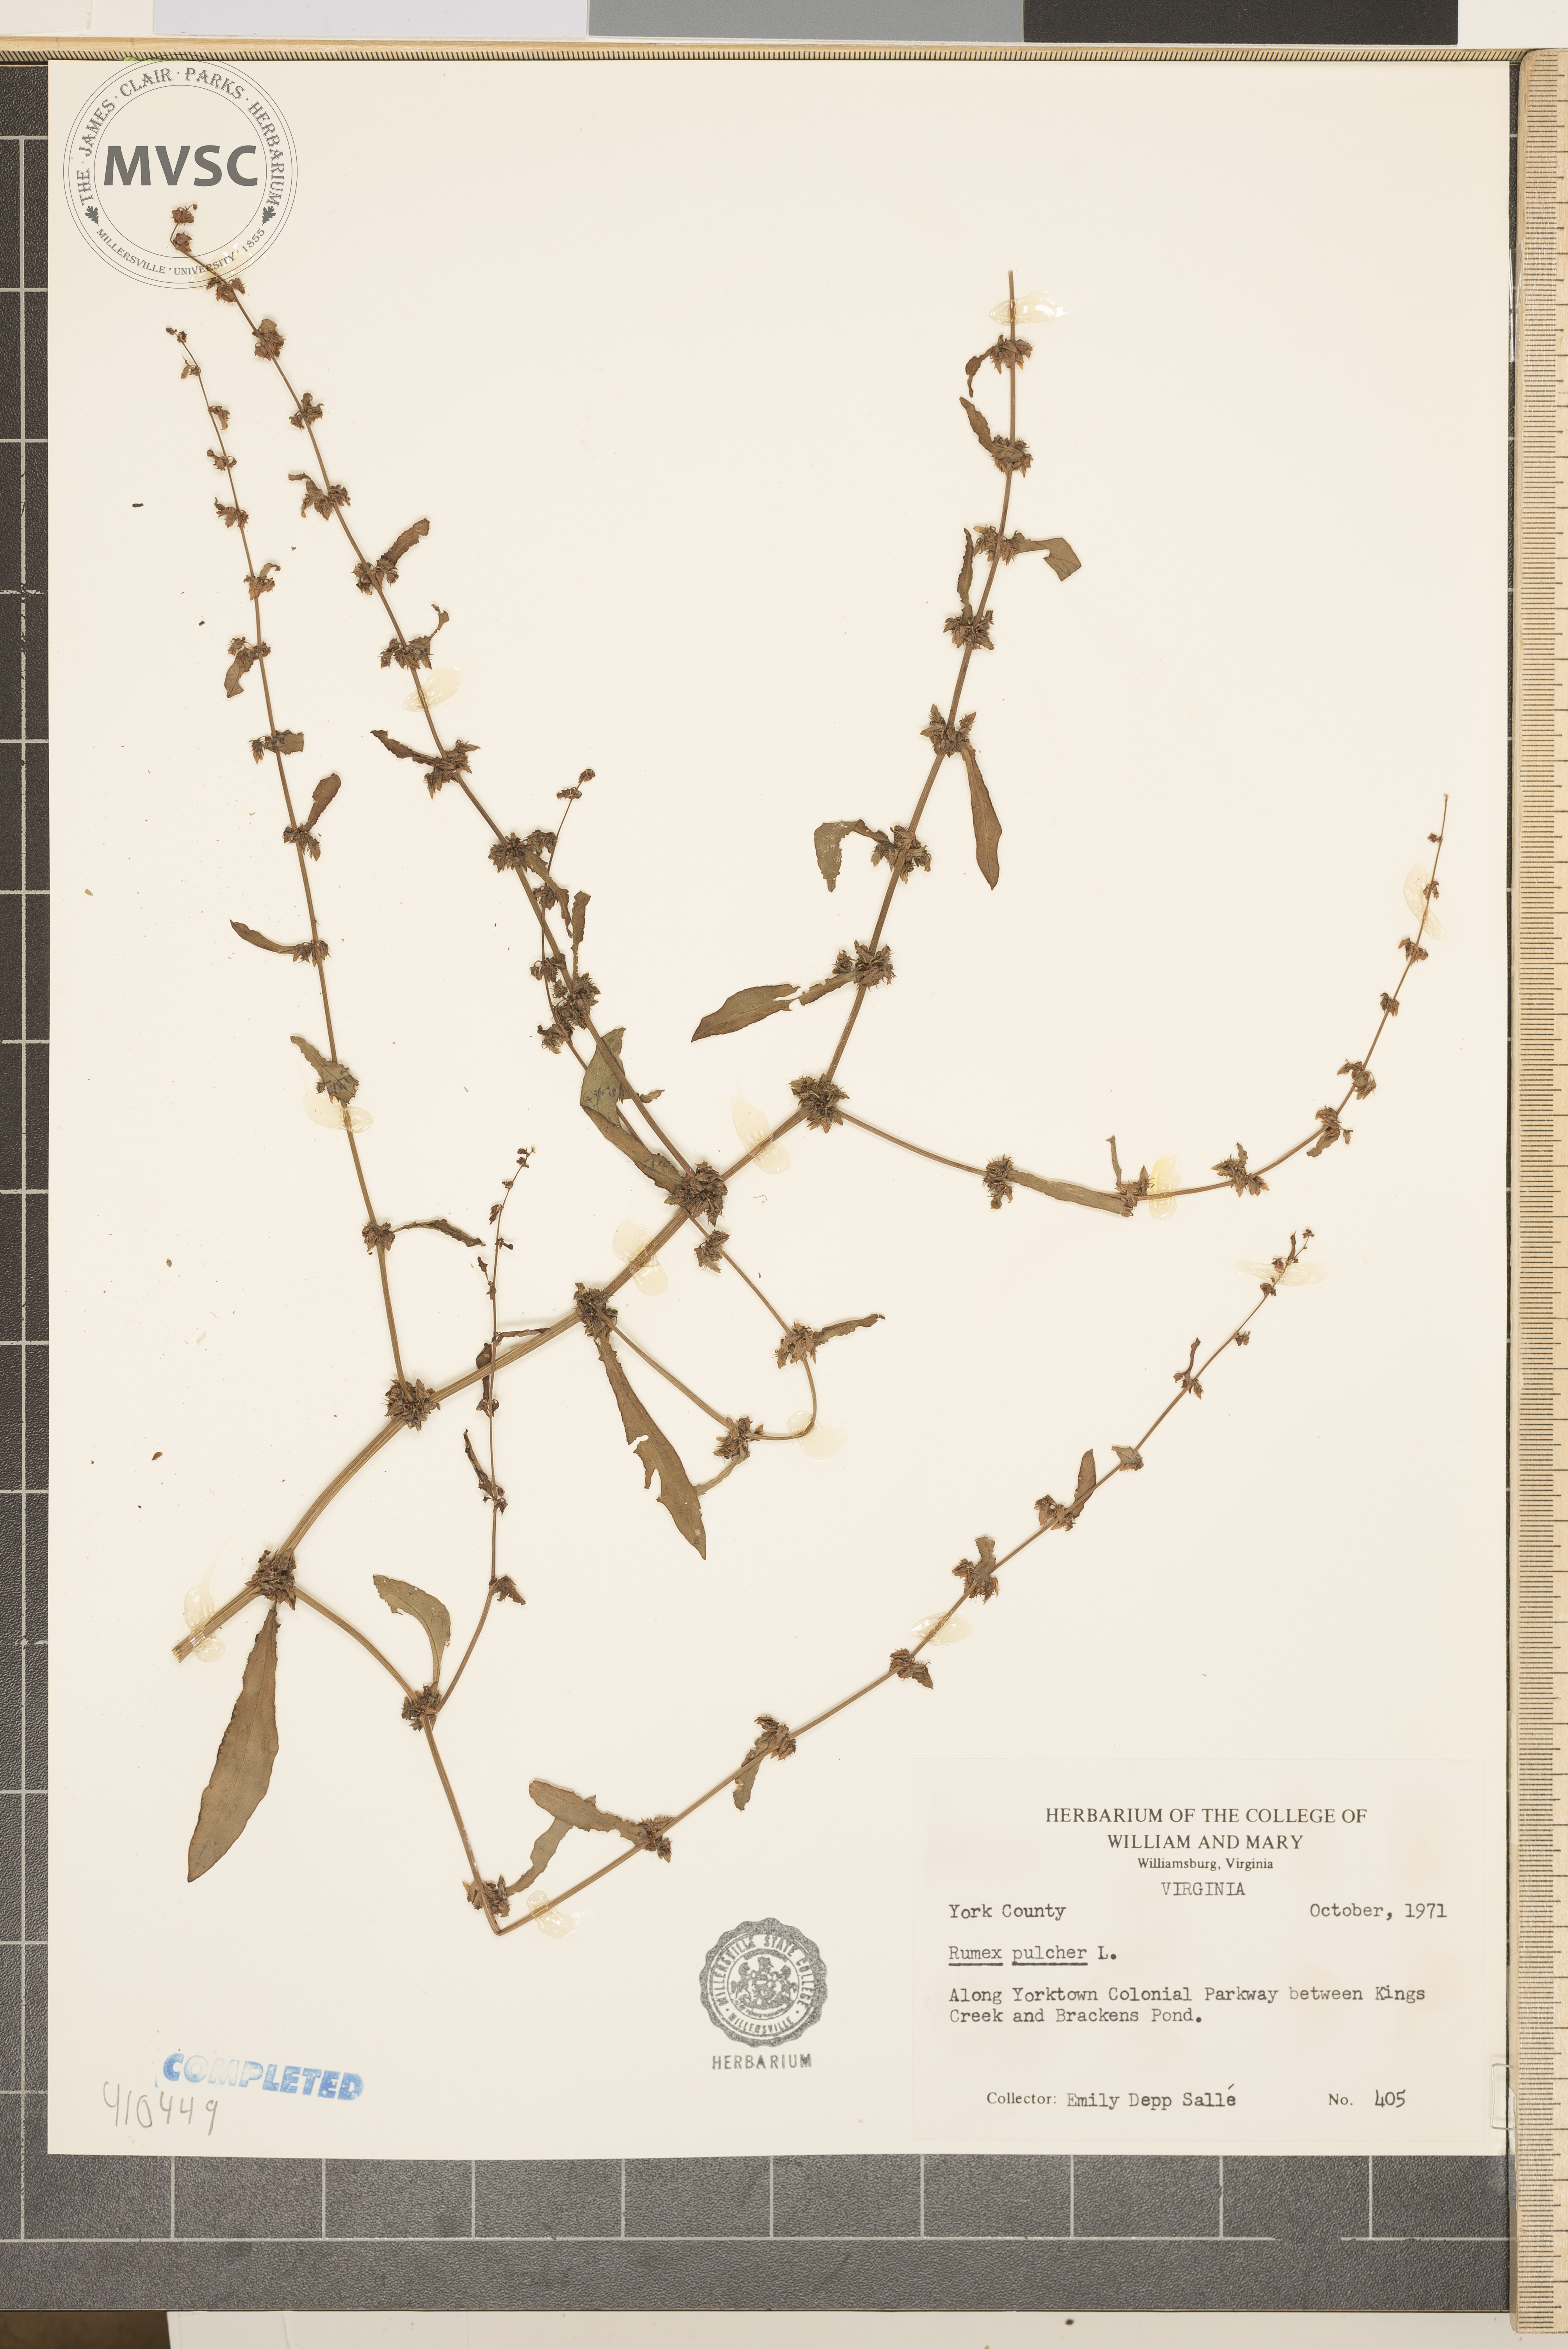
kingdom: Plantae
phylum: Tracheophyta
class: Magnoliopsida
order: Caryophyllales
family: Polygonaceae
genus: Rumex
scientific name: Rumex pulcher
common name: Fiddle dock
